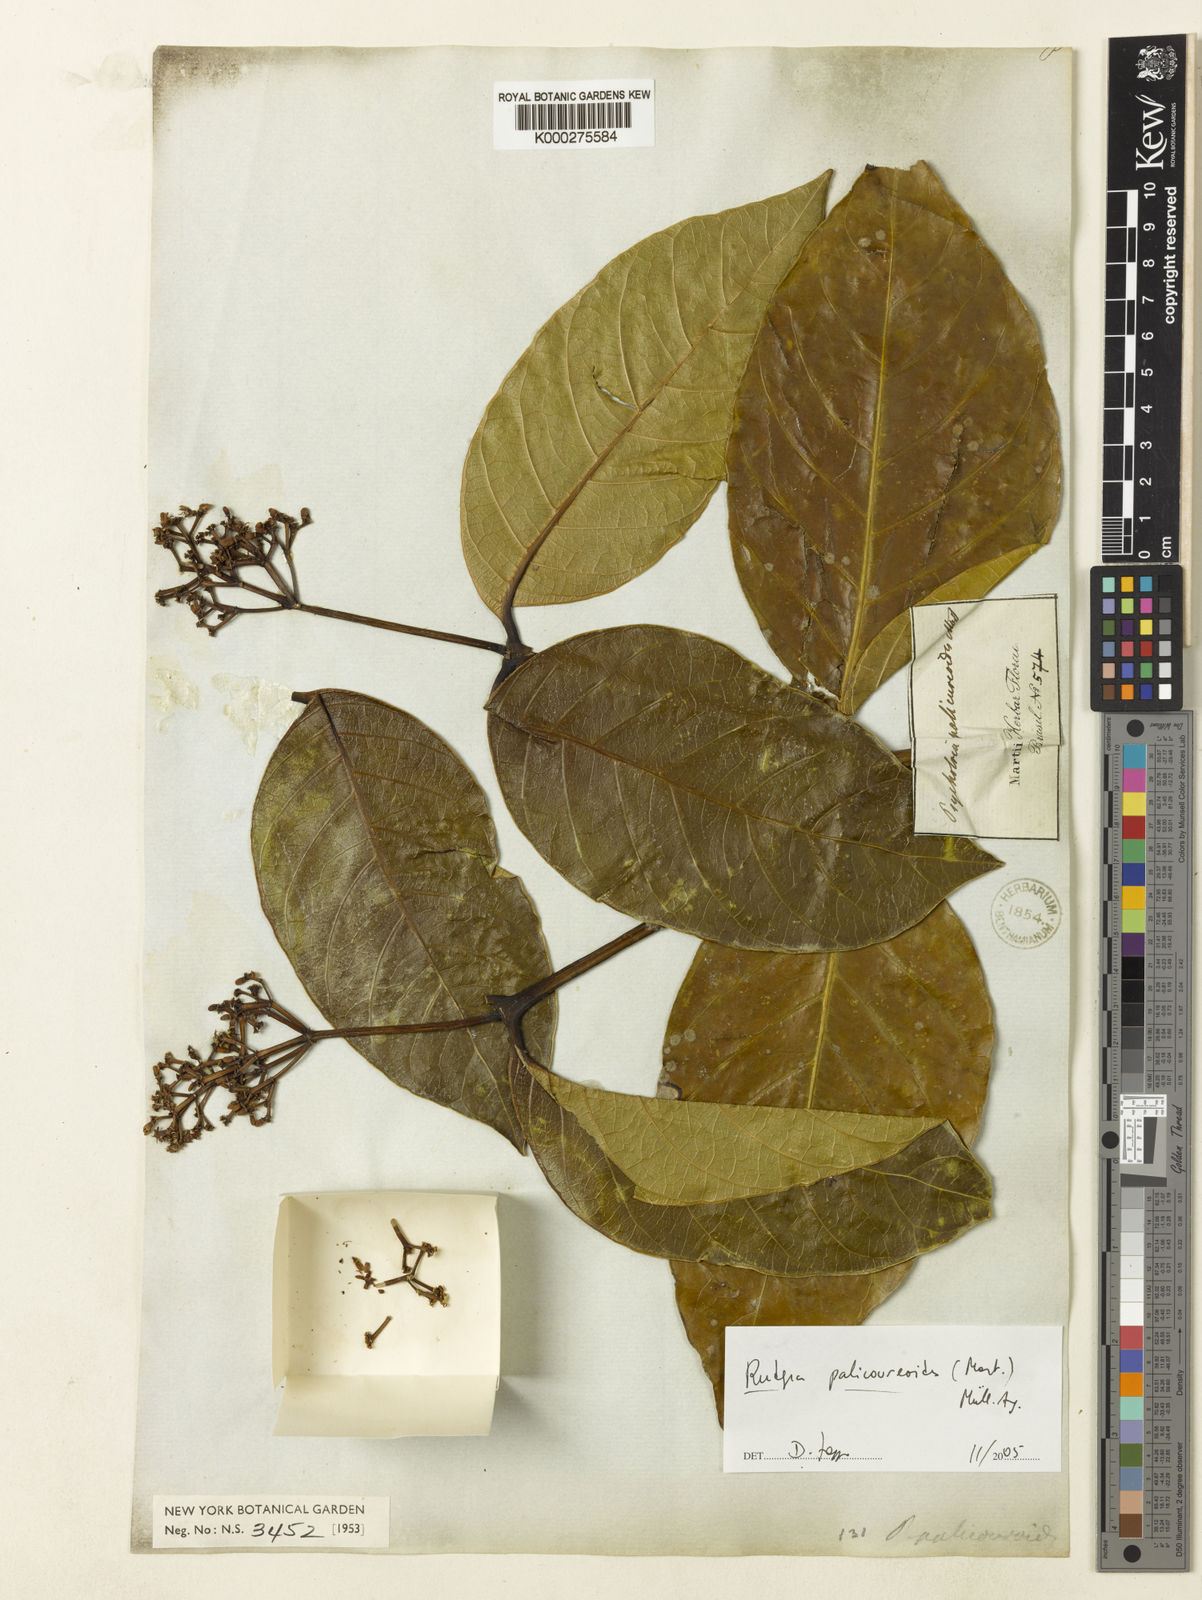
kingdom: Plantae
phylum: Tracheophyta
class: Magnoliopsida
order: Gentianales
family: Rubiaceae
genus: Rudgea
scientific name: Rudgea
